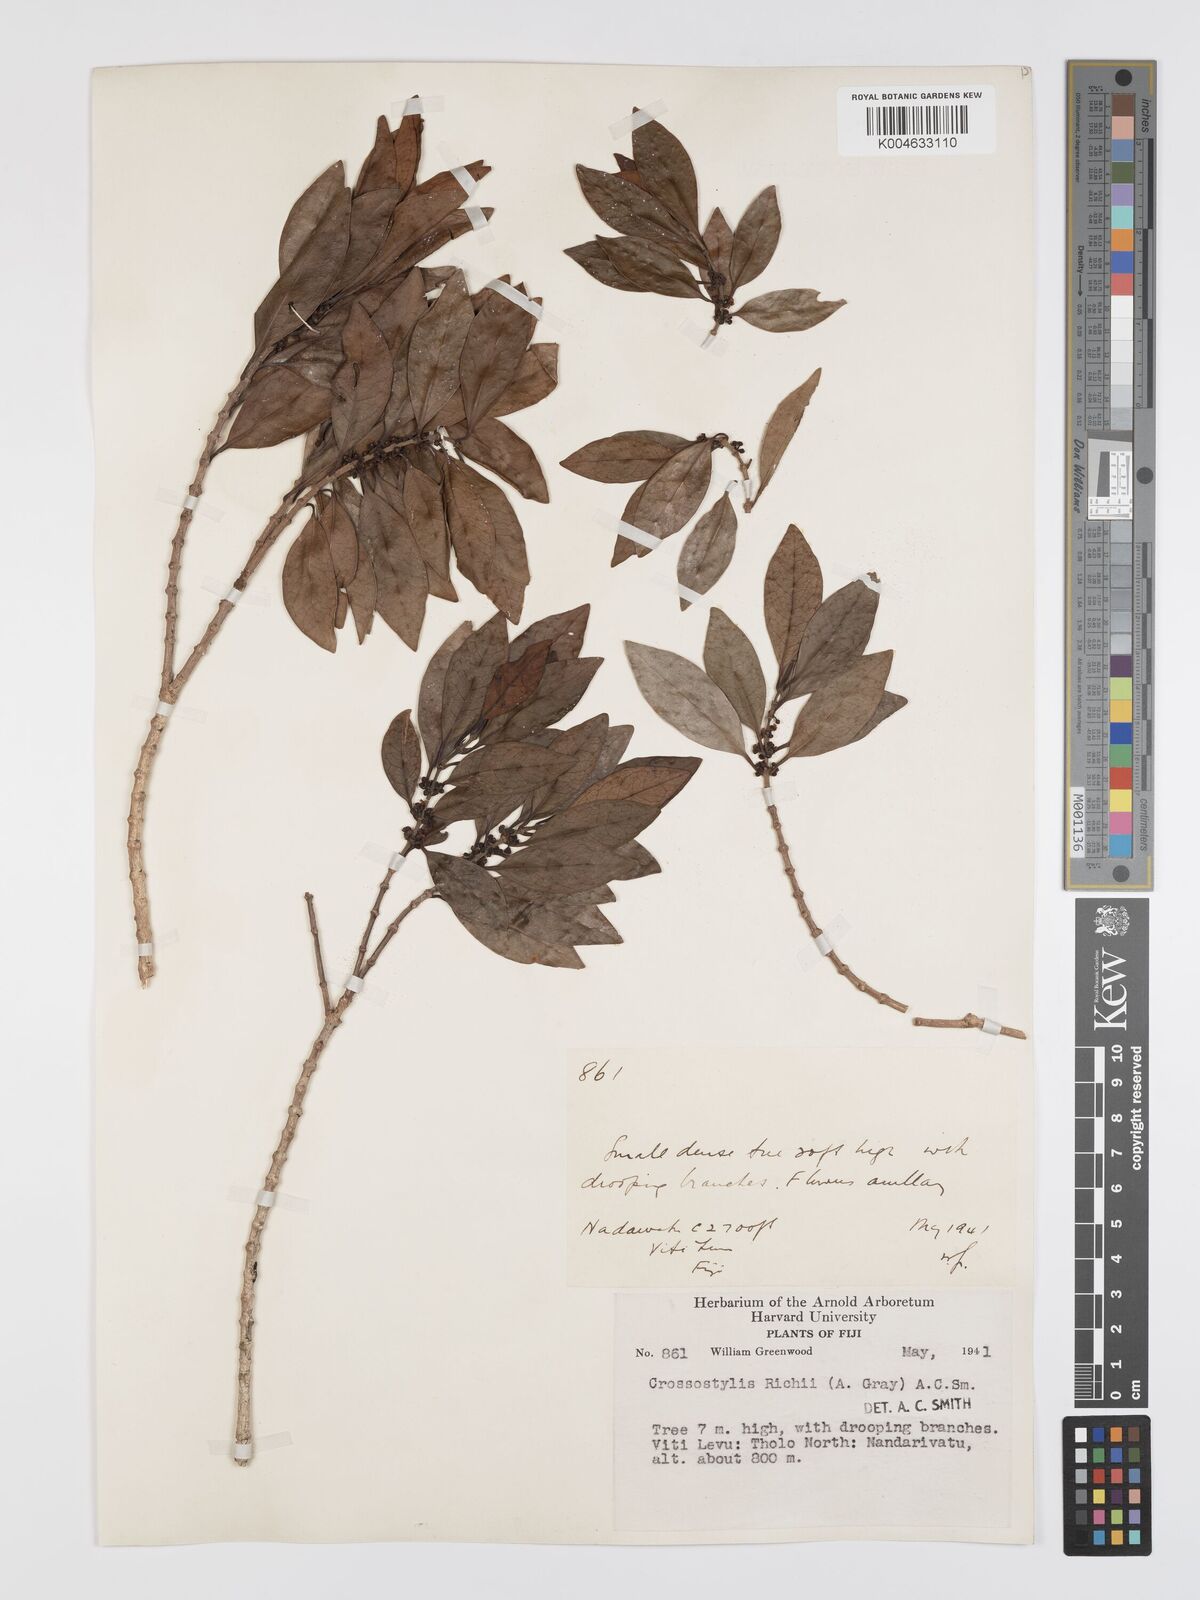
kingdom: Plantae
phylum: Tracheophyta
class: Magnoliopsida
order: Malpighiales
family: Rhizophoraceae
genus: Crossostylis
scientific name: Crossostylis richii
